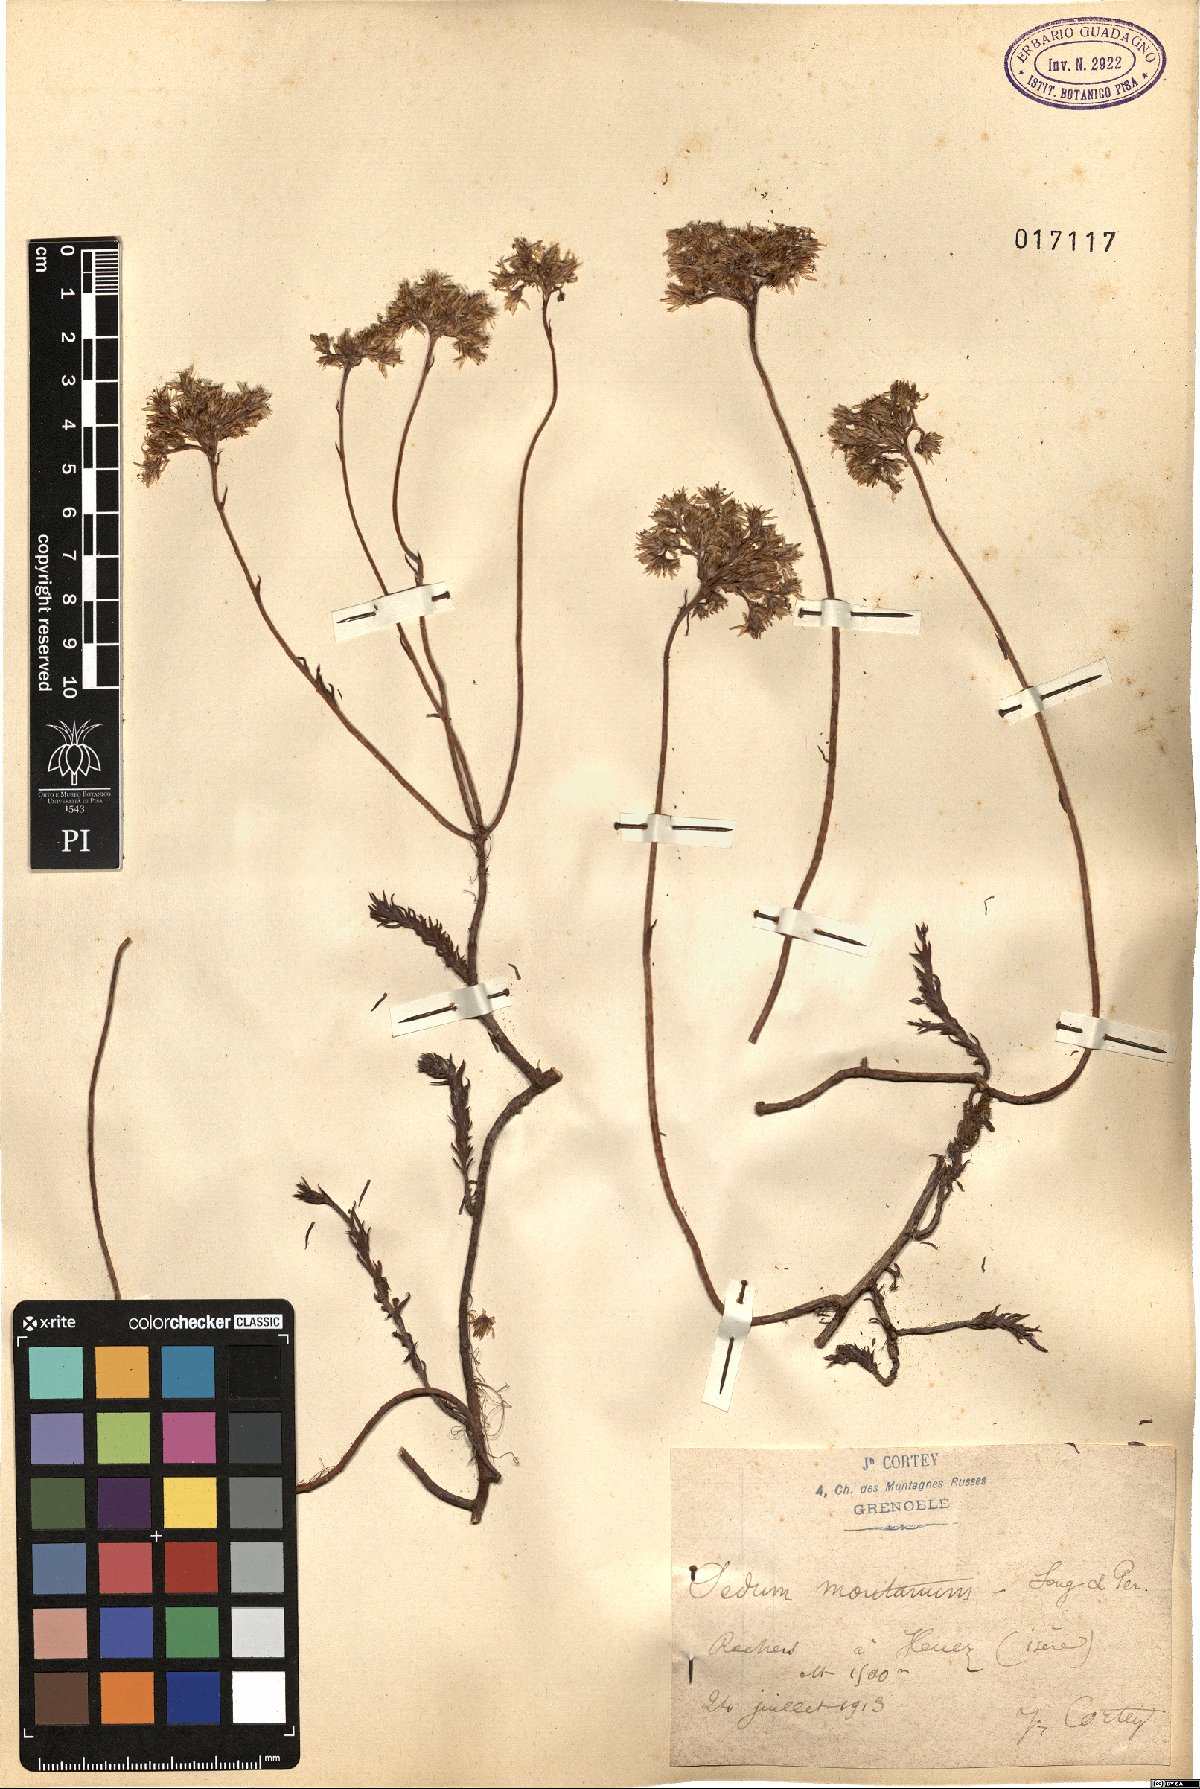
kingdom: Plantae
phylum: Tracheophyta
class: Magnoliopsida
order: Saxifragales
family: Crassulaceae
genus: Petrosedum
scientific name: Petrosedum montanum
